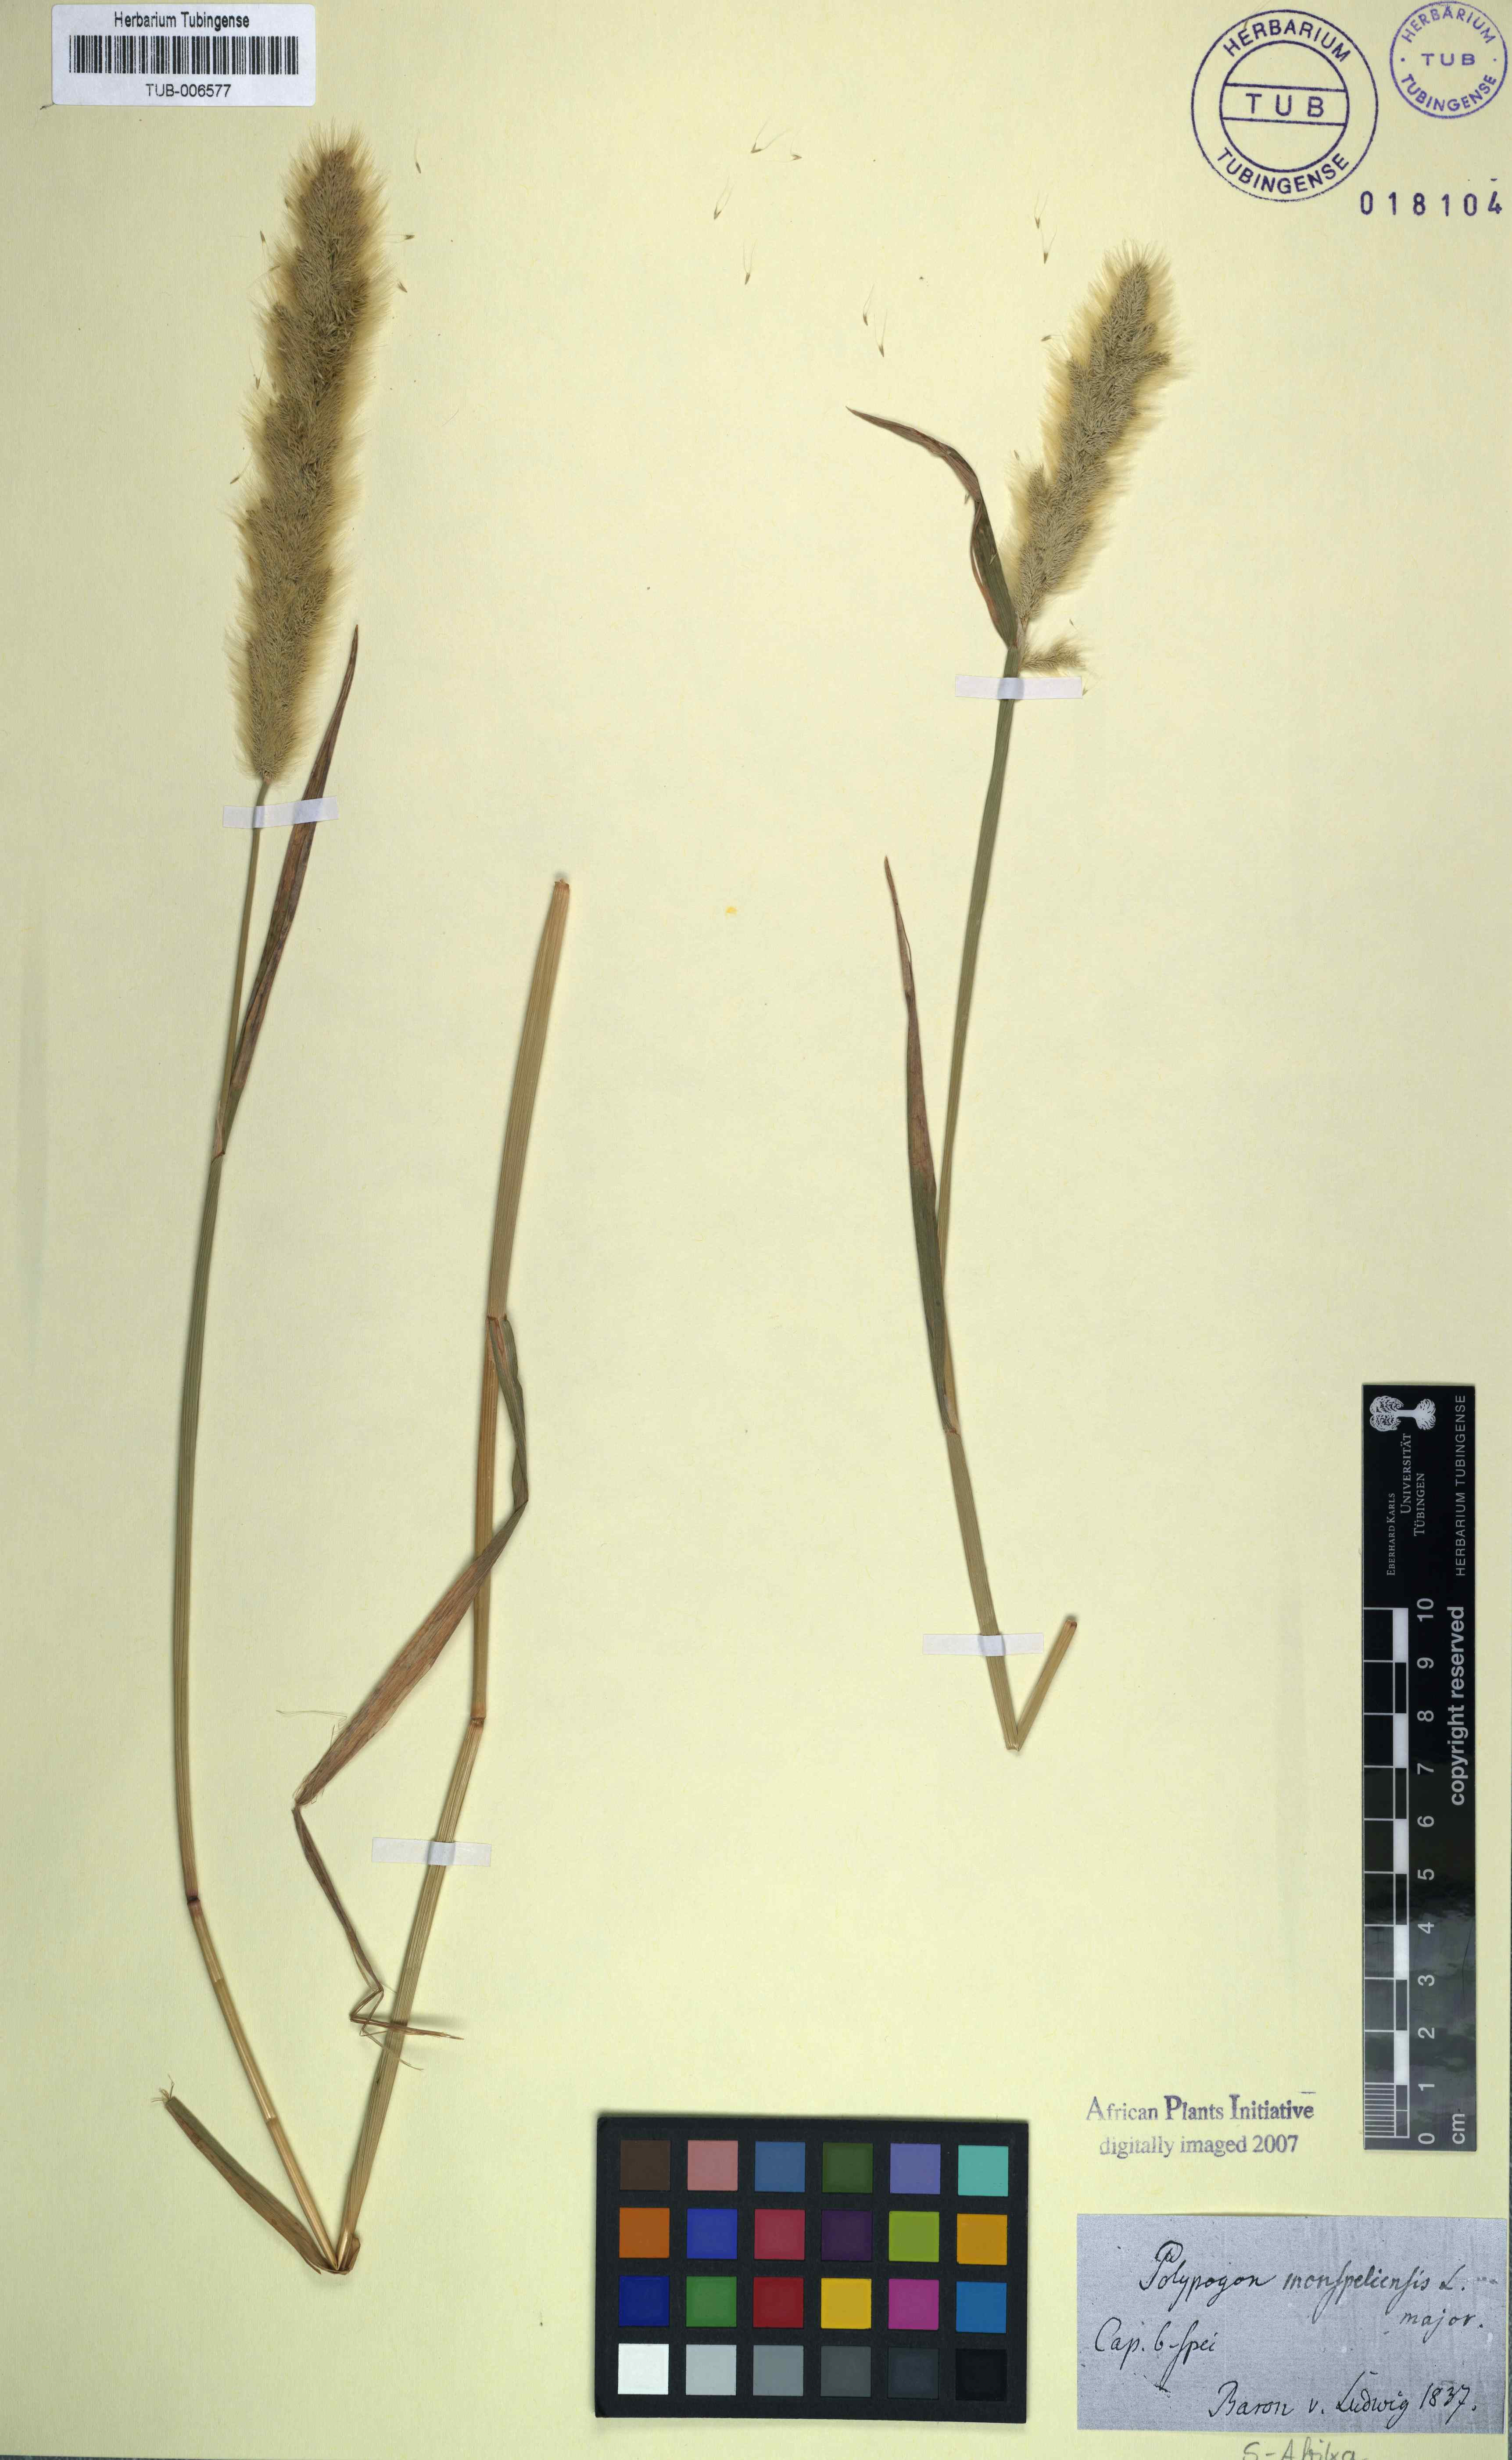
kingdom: Plantae
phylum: Tracheophyta
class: Liliopsida
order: Poales
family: Poaceae
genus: Polypogon
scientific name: Polypogon monspeliensis
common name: Annual rabbitsfoot grass
